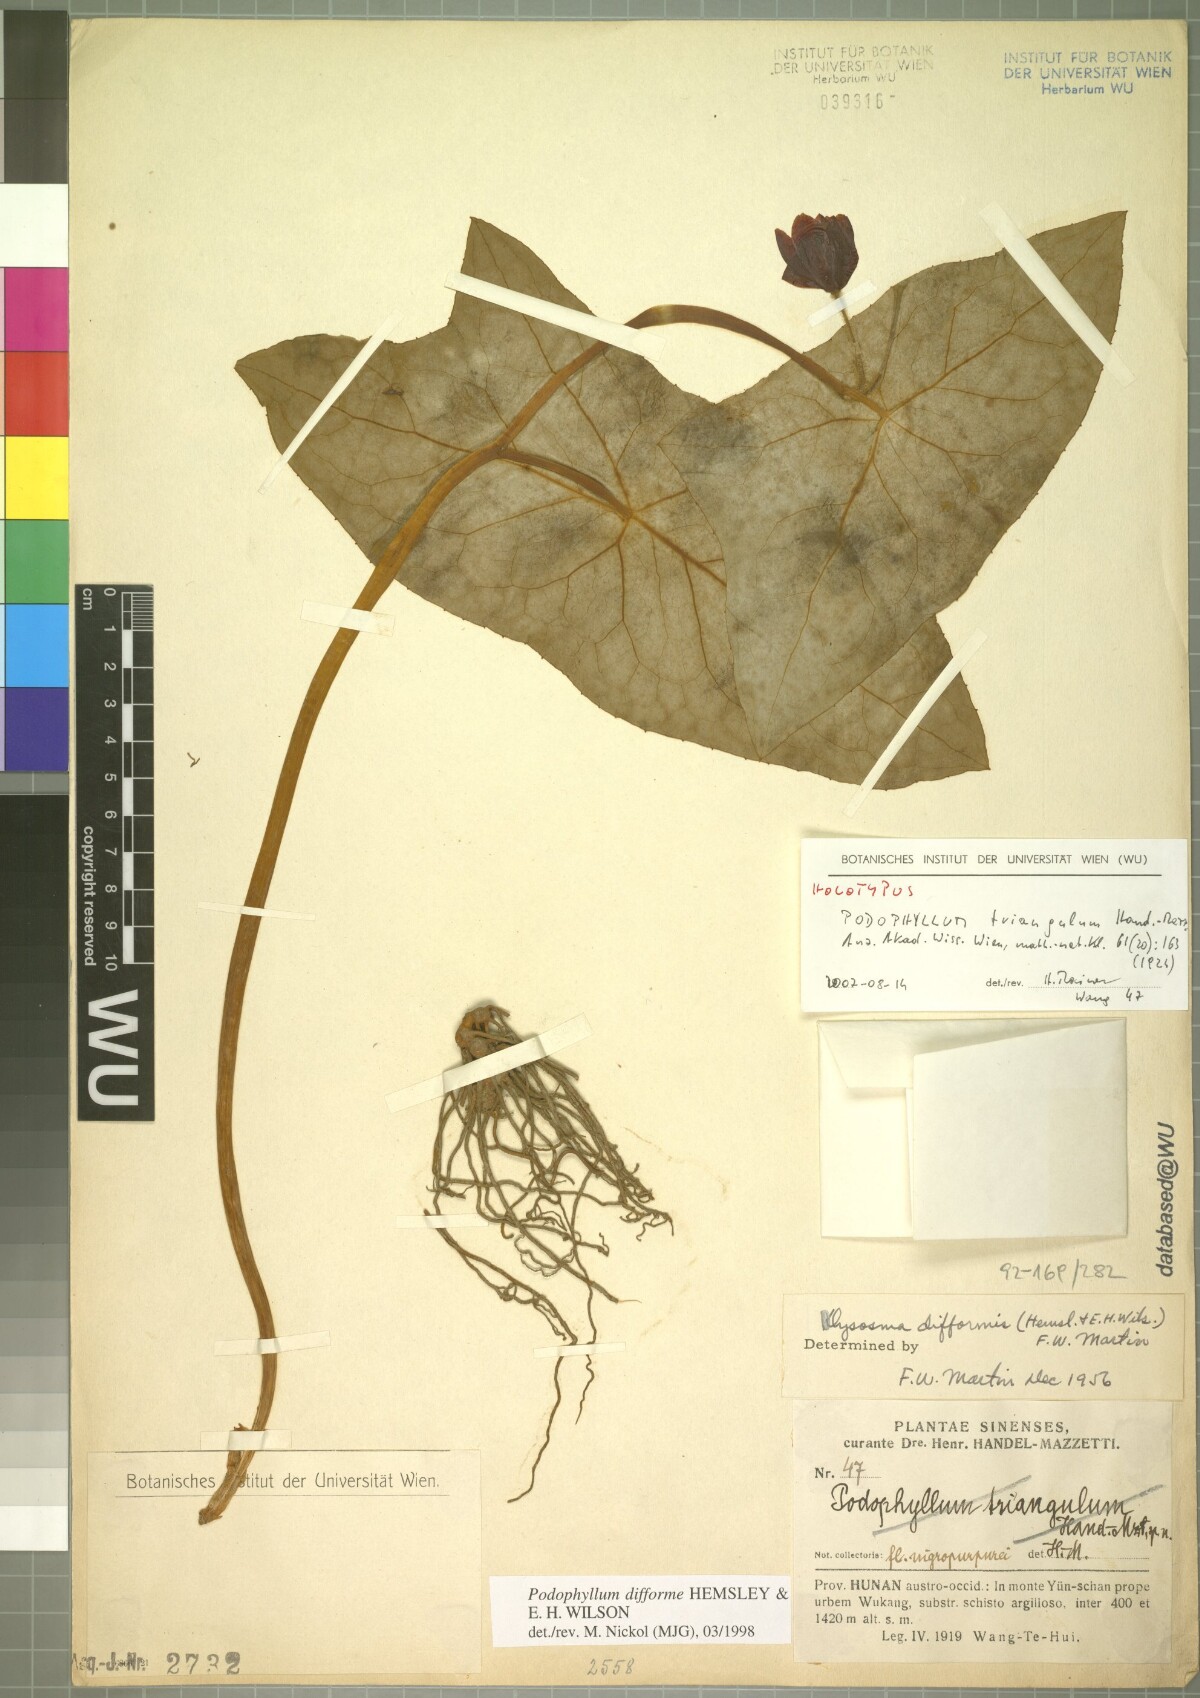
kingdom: Plantae
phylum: Tracheophyta
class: Magnoliopsida
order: Ranunculales
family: Berberidaceae
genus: Dysosma
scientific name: Dysosma difformis
